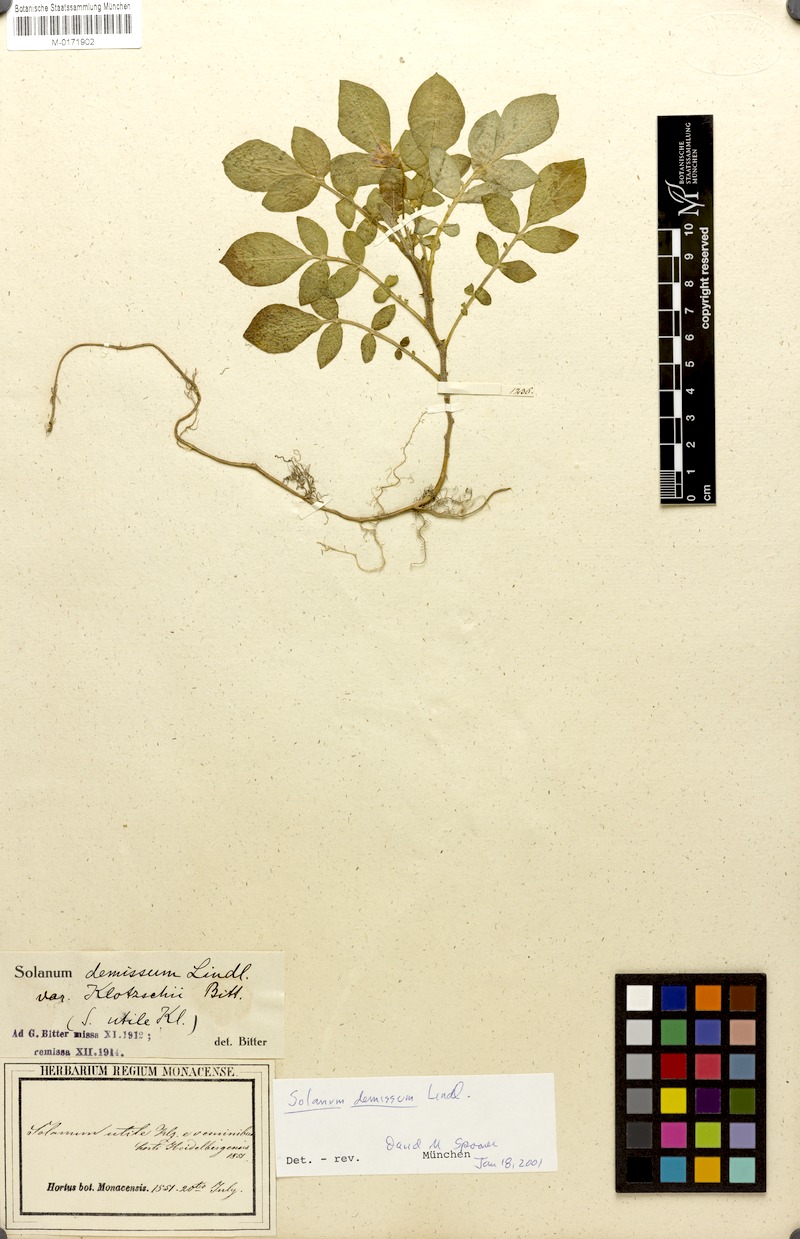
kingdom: Plantae
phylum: Tracheophyta
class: Magnoliopsida
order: Solanales
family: Solanaceae
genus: Solanum
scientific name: Solanum demissum
